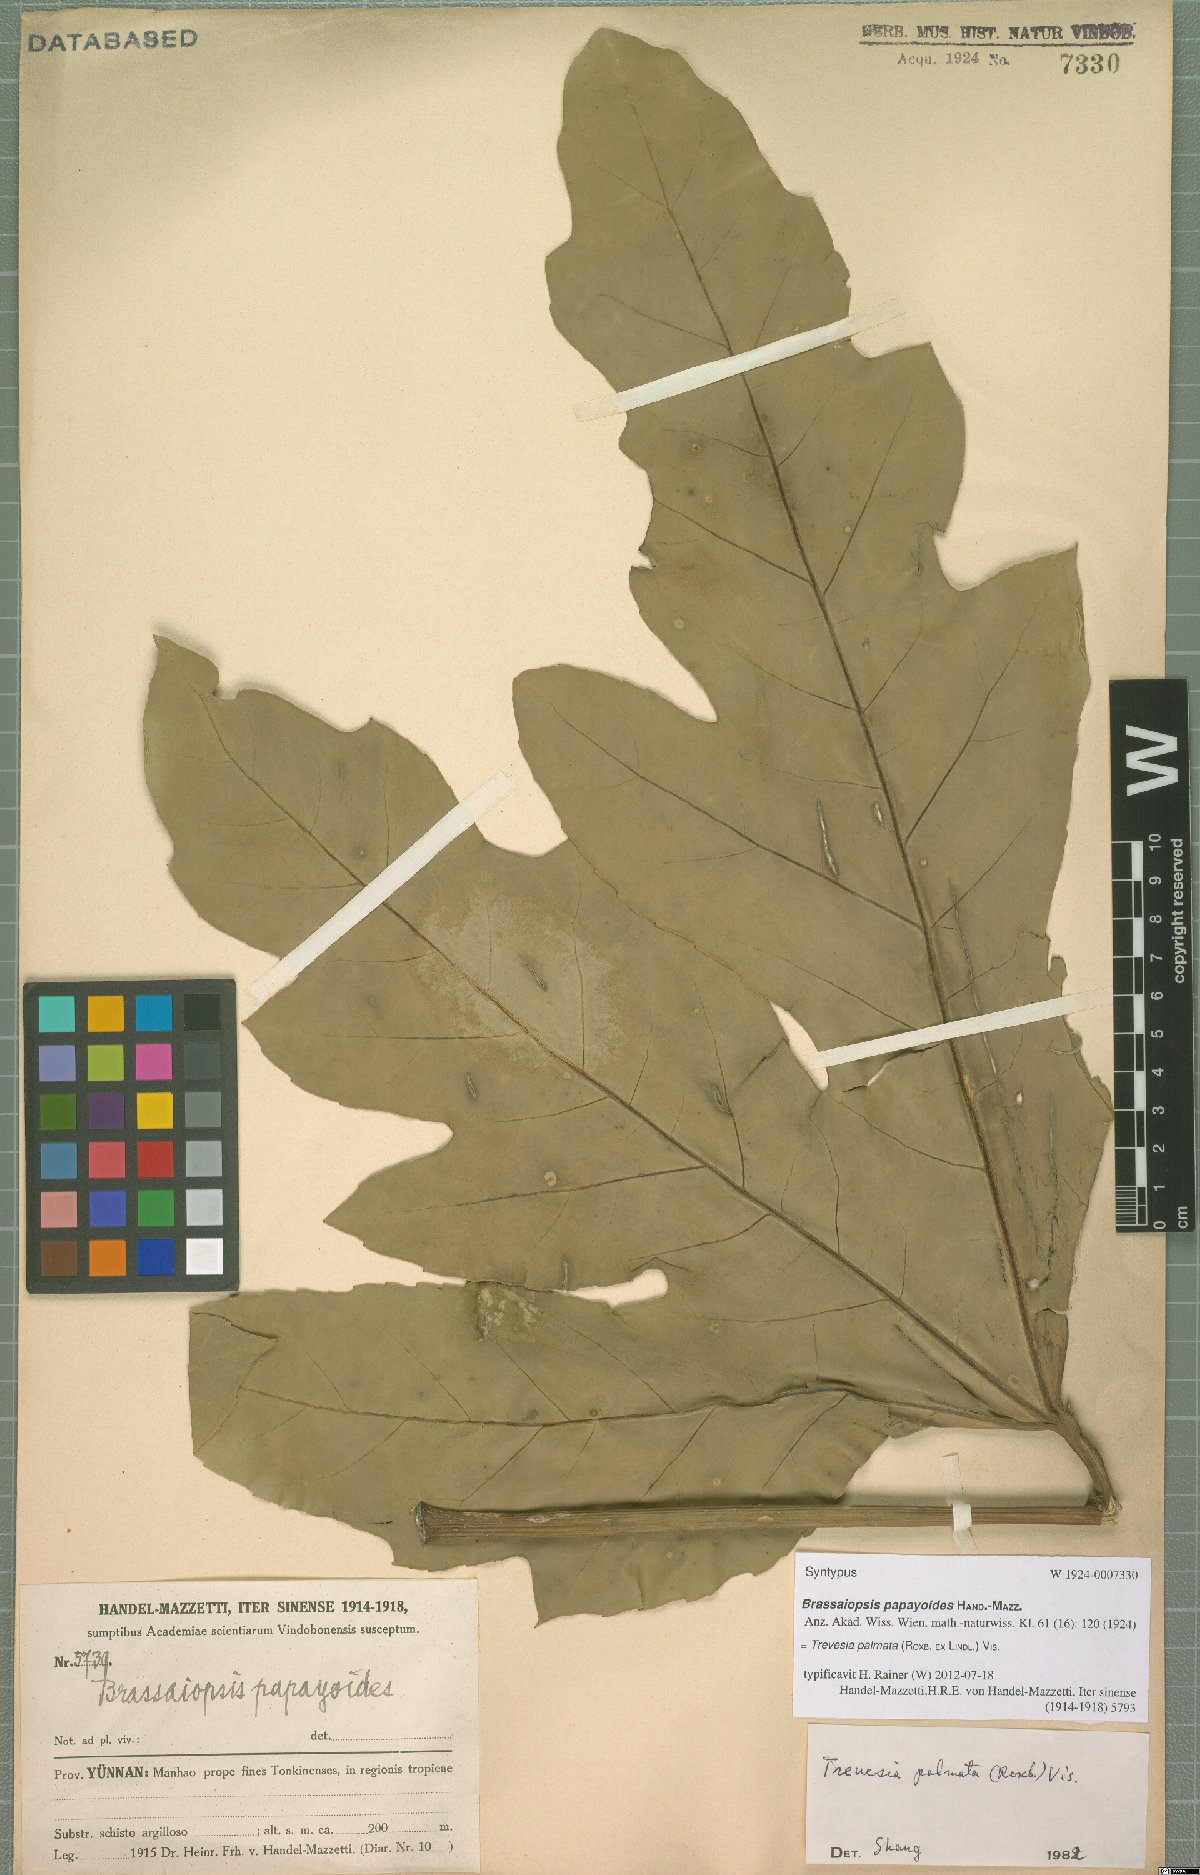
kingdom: Plantae
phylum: Tracheophyta
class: Magnoliopsida
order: Apiales
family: Araliaceae
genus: Trevesia
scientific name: Trevesia palmata
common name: Snowflakeplant
